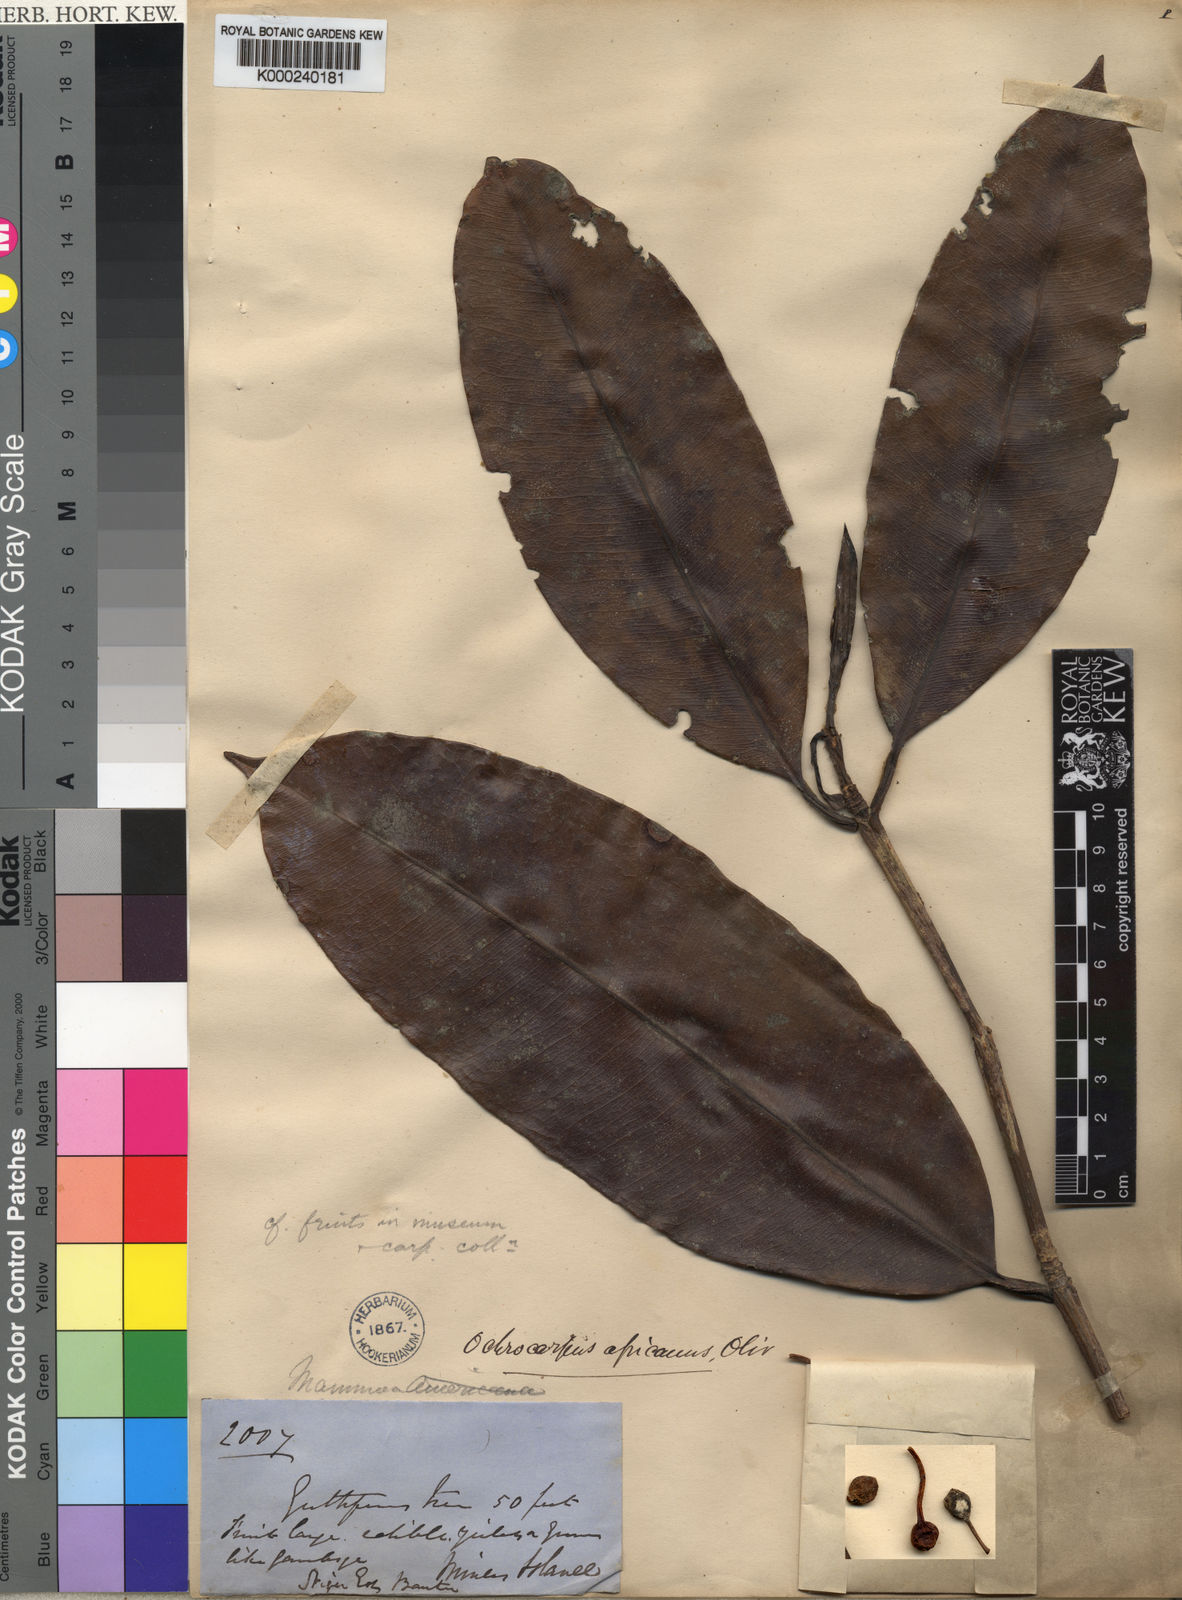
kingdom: Plantae
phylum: Tracheophyta
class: Magnoliopsida
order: Malpighiales
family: Calophyllaceae
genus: Mammea
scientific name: Mammea africana
